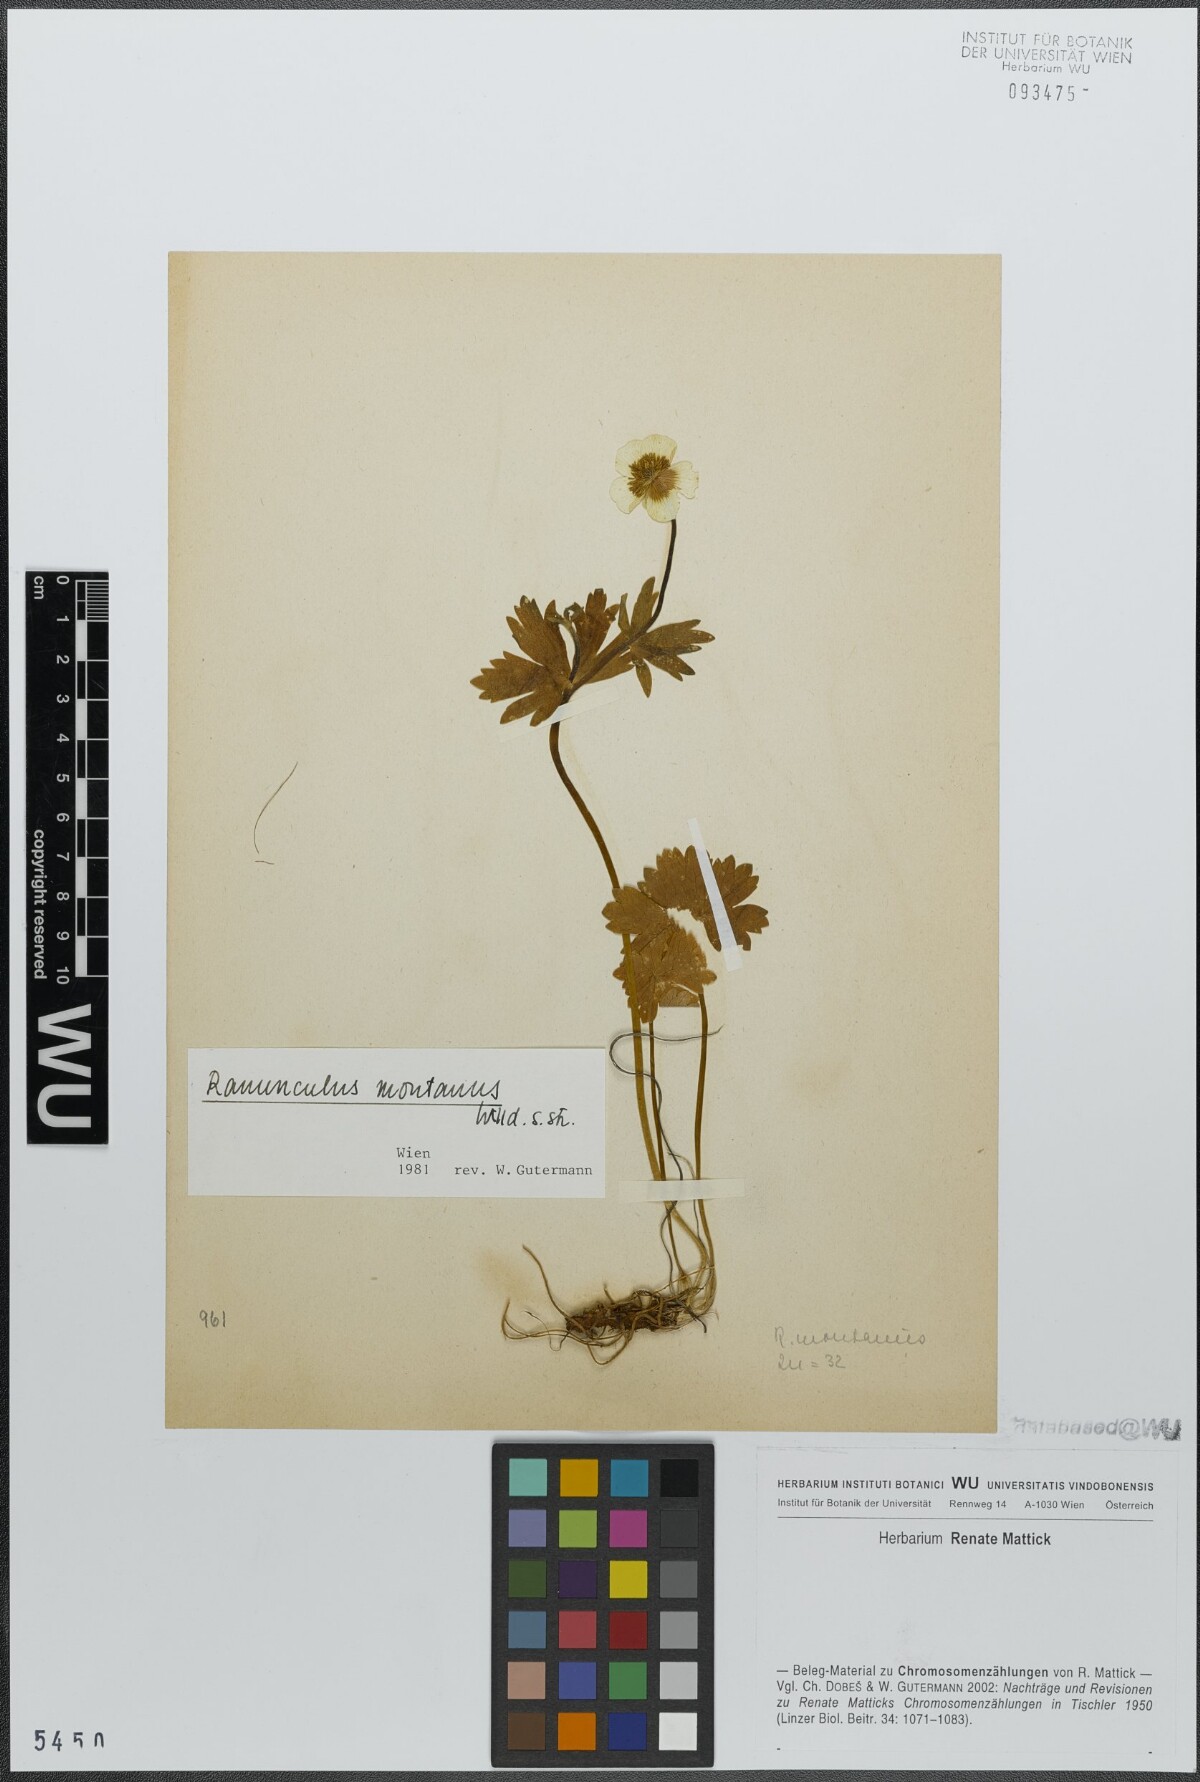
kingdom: Plantae
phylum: Tracheophyta
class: Magnoliopsida
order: Ranunculales
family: Ranunculaceae
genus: Ranunculus
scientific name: Ranunculus montanus
